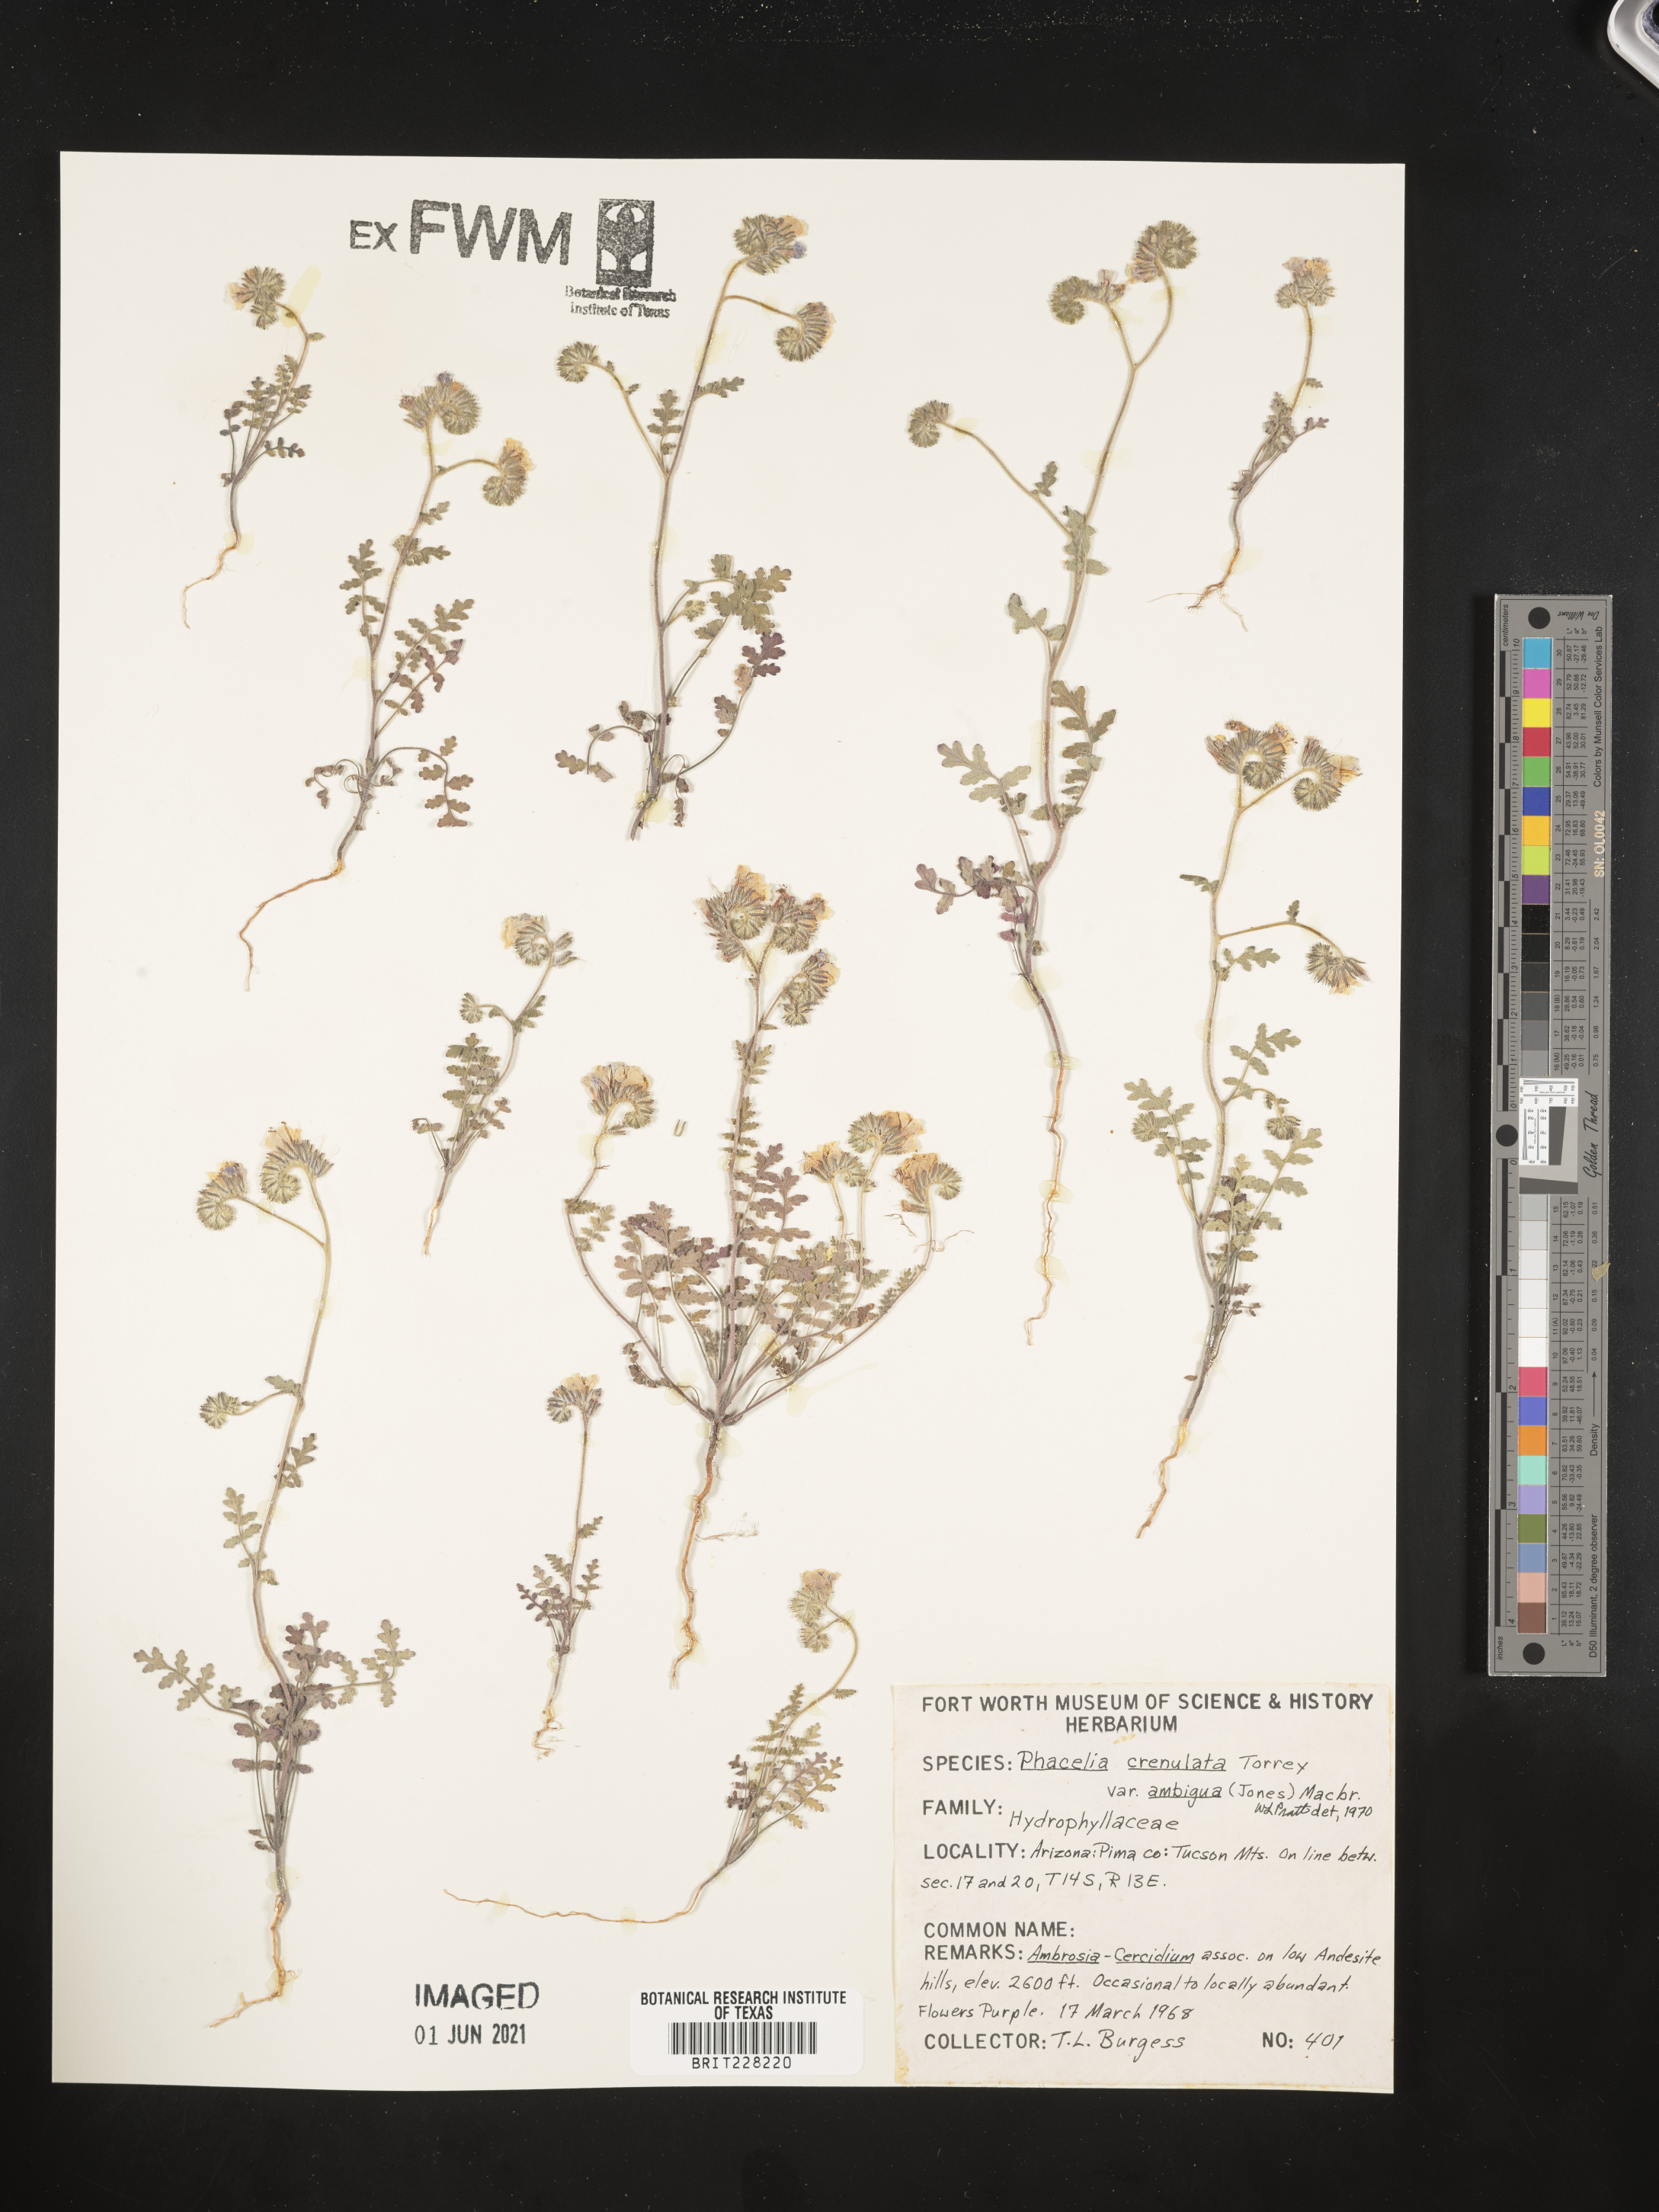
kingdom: Plantae
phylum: Tracheophyta
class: Magnoliopsida
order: Boraginales
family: Hydrophyllaceae
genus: Phacelia
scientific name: Phacelia crenulata
